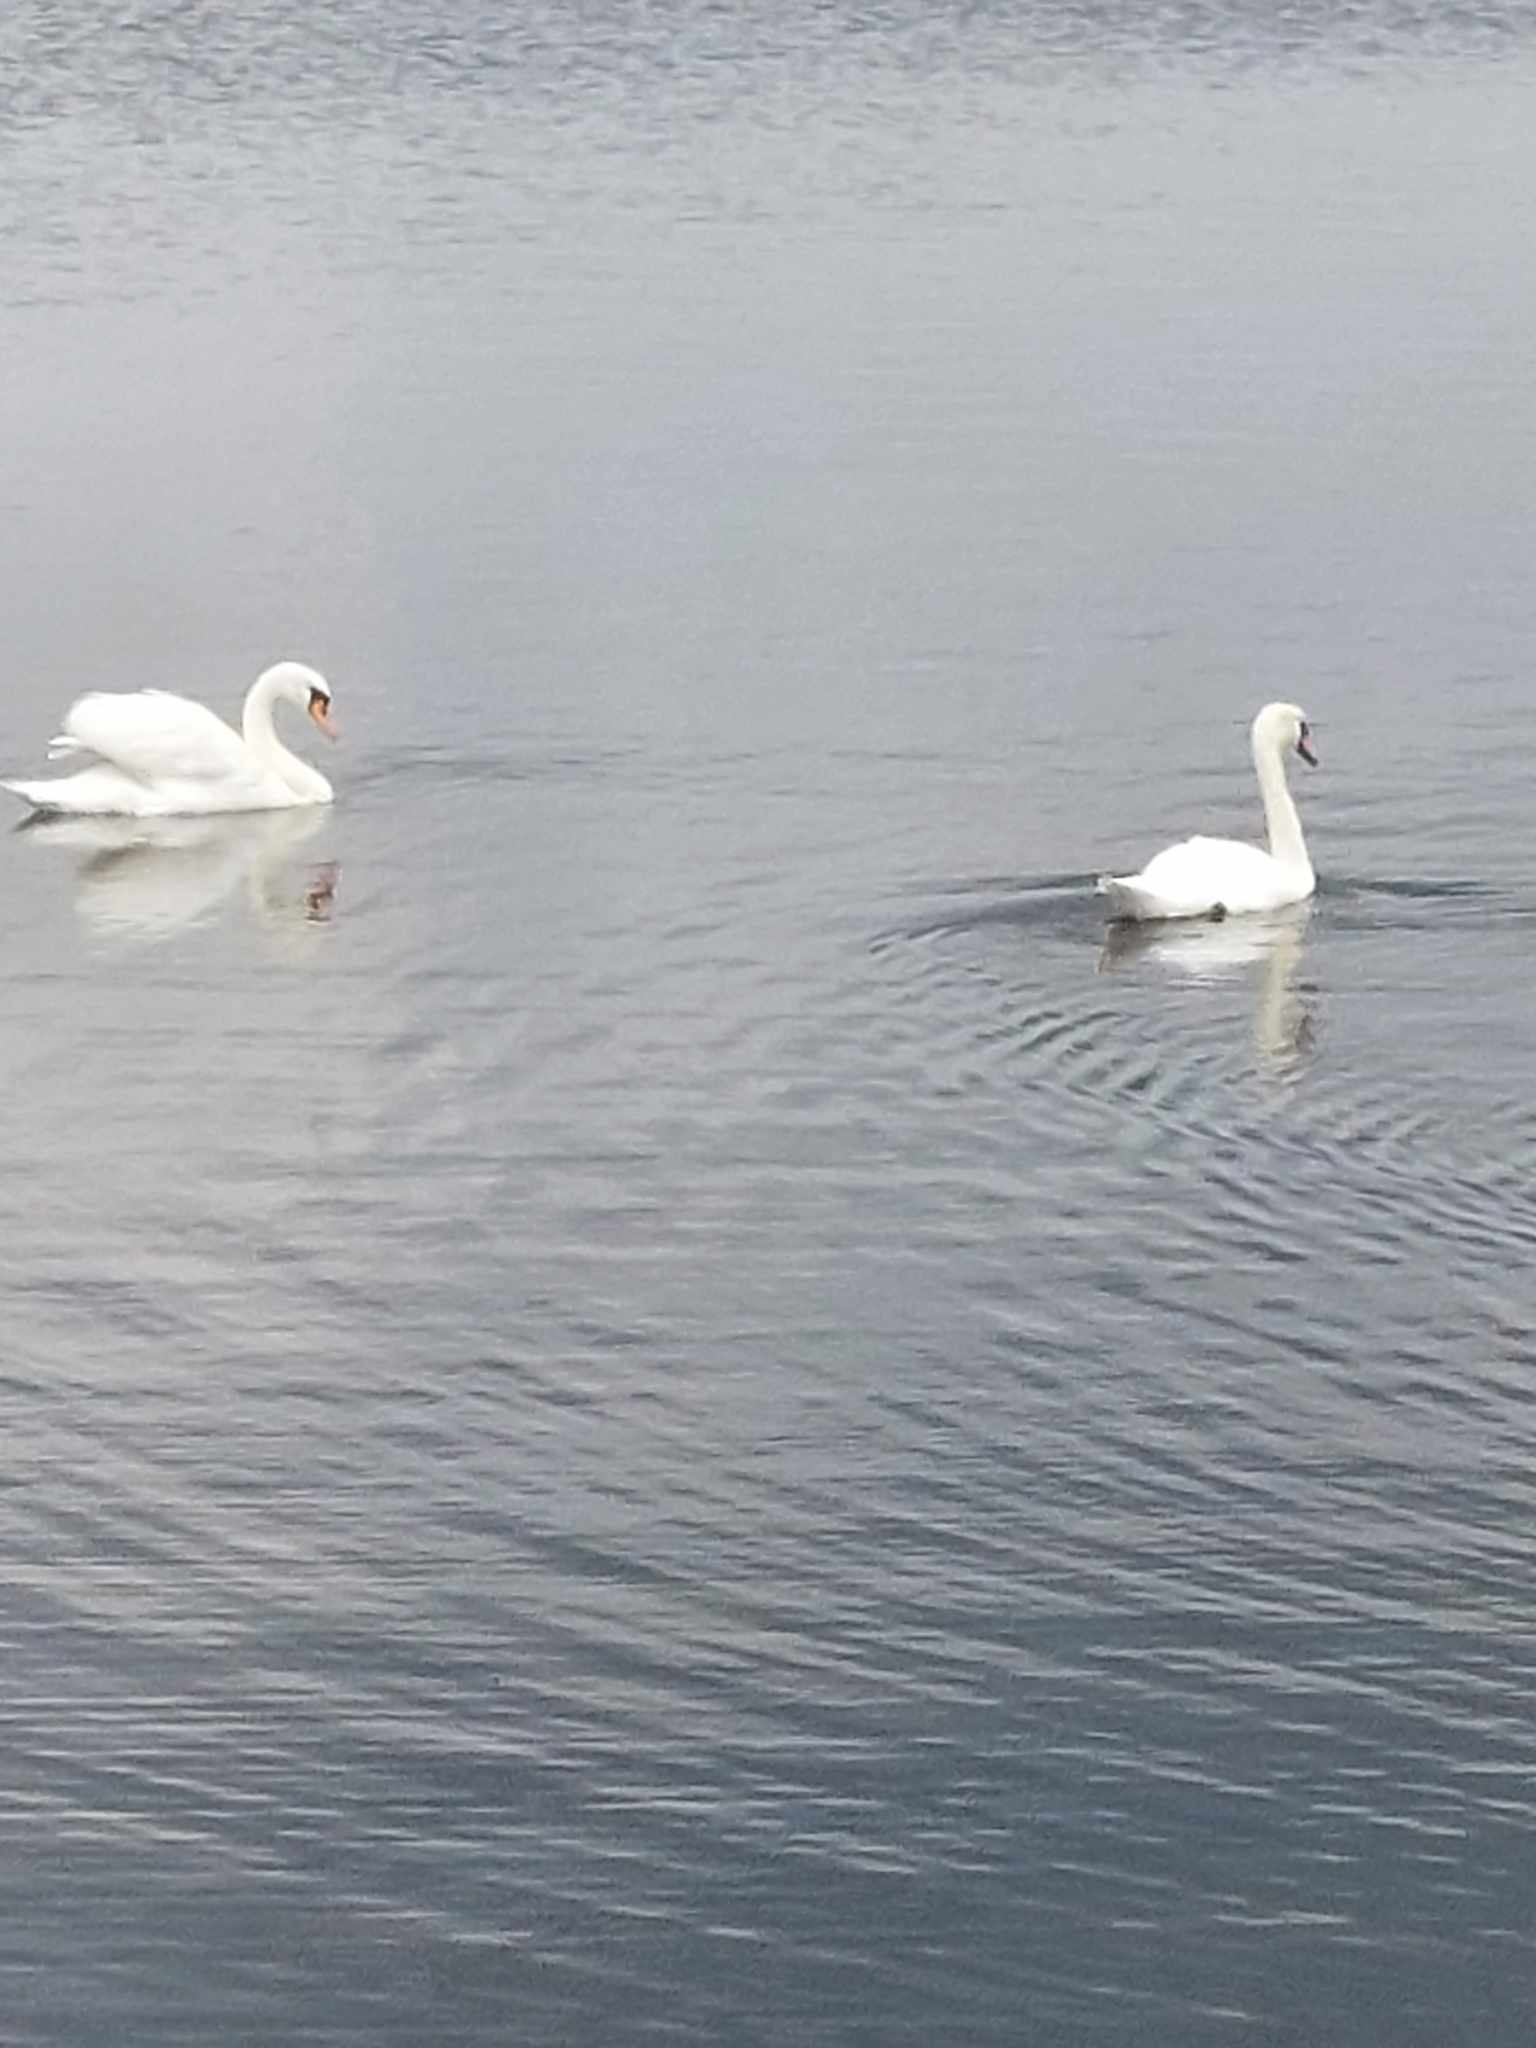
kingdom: Animalia
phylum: Chordata
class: Aves
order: Anseriformes
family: Anatidae
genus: Cygnus
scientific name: Cygnus olor
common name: Knopsvane
